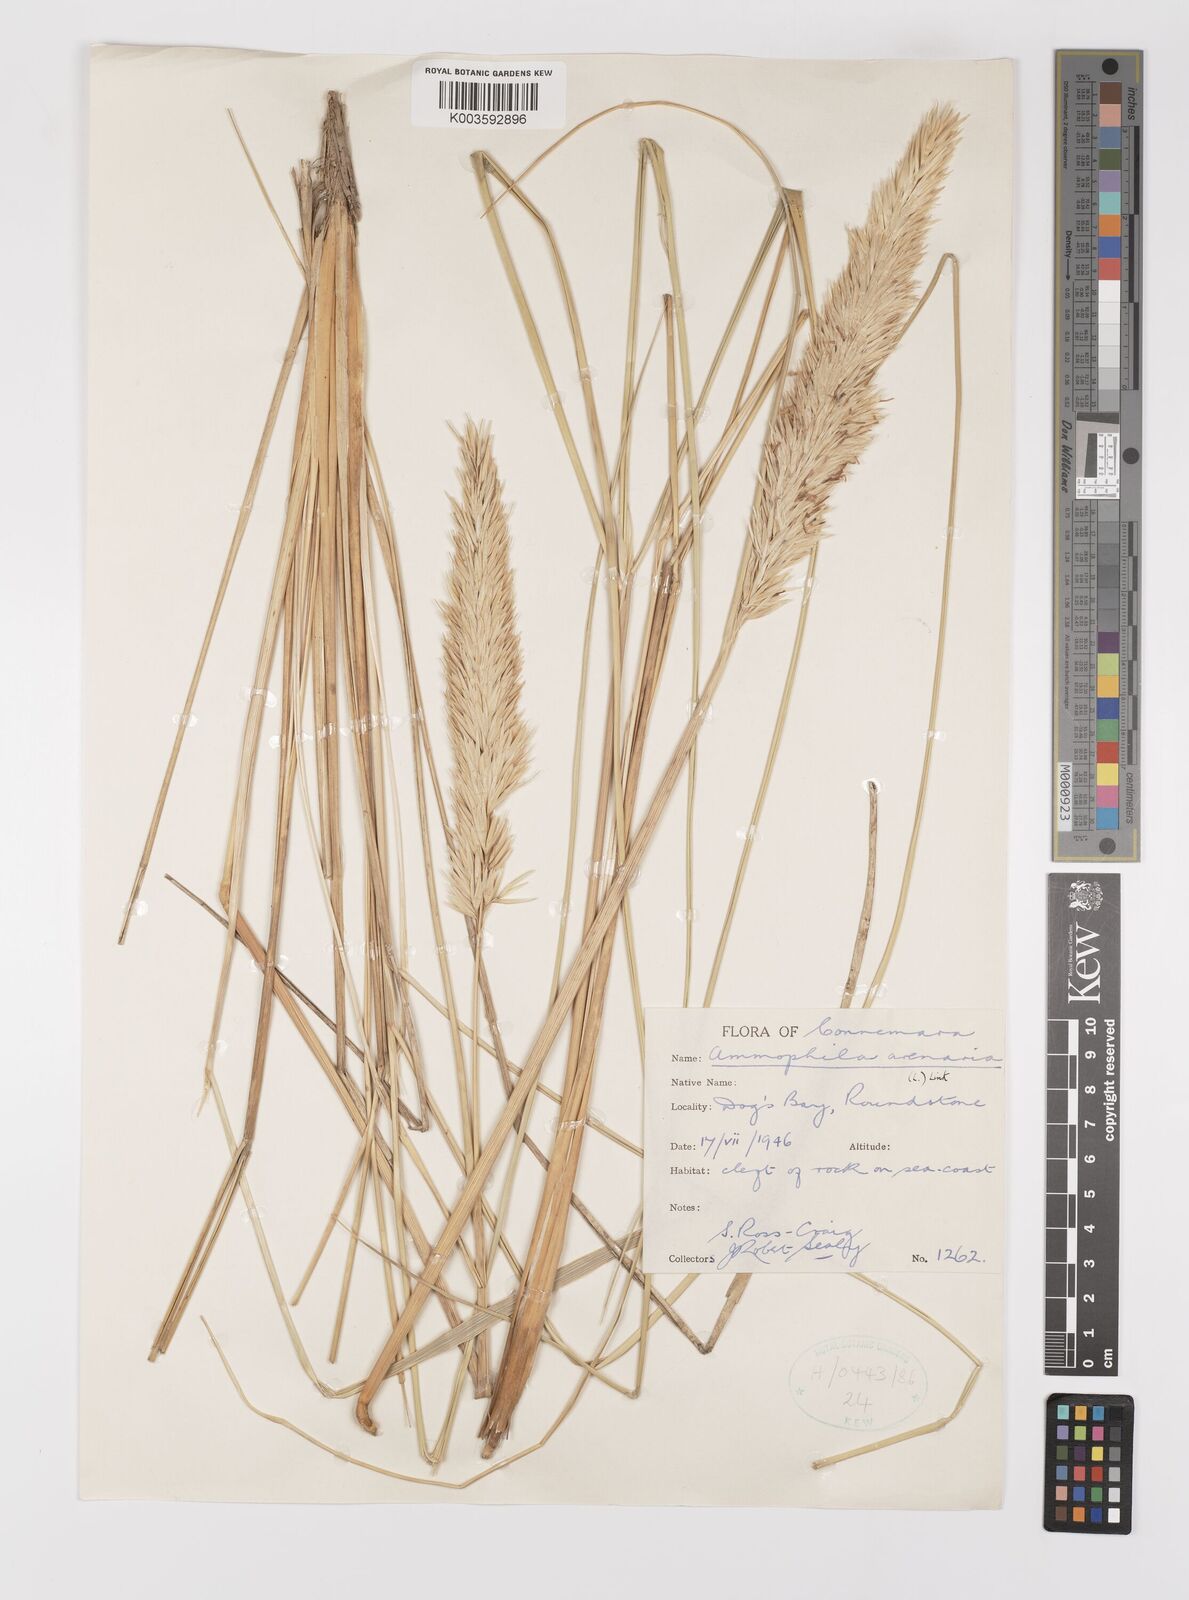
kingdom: Plantae
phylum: Tracheophyta
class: Liliopsida
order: Poales
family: Poaceae
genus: Calamagrostis
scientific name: Calamagrostis arenaria
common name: European beachgrass
